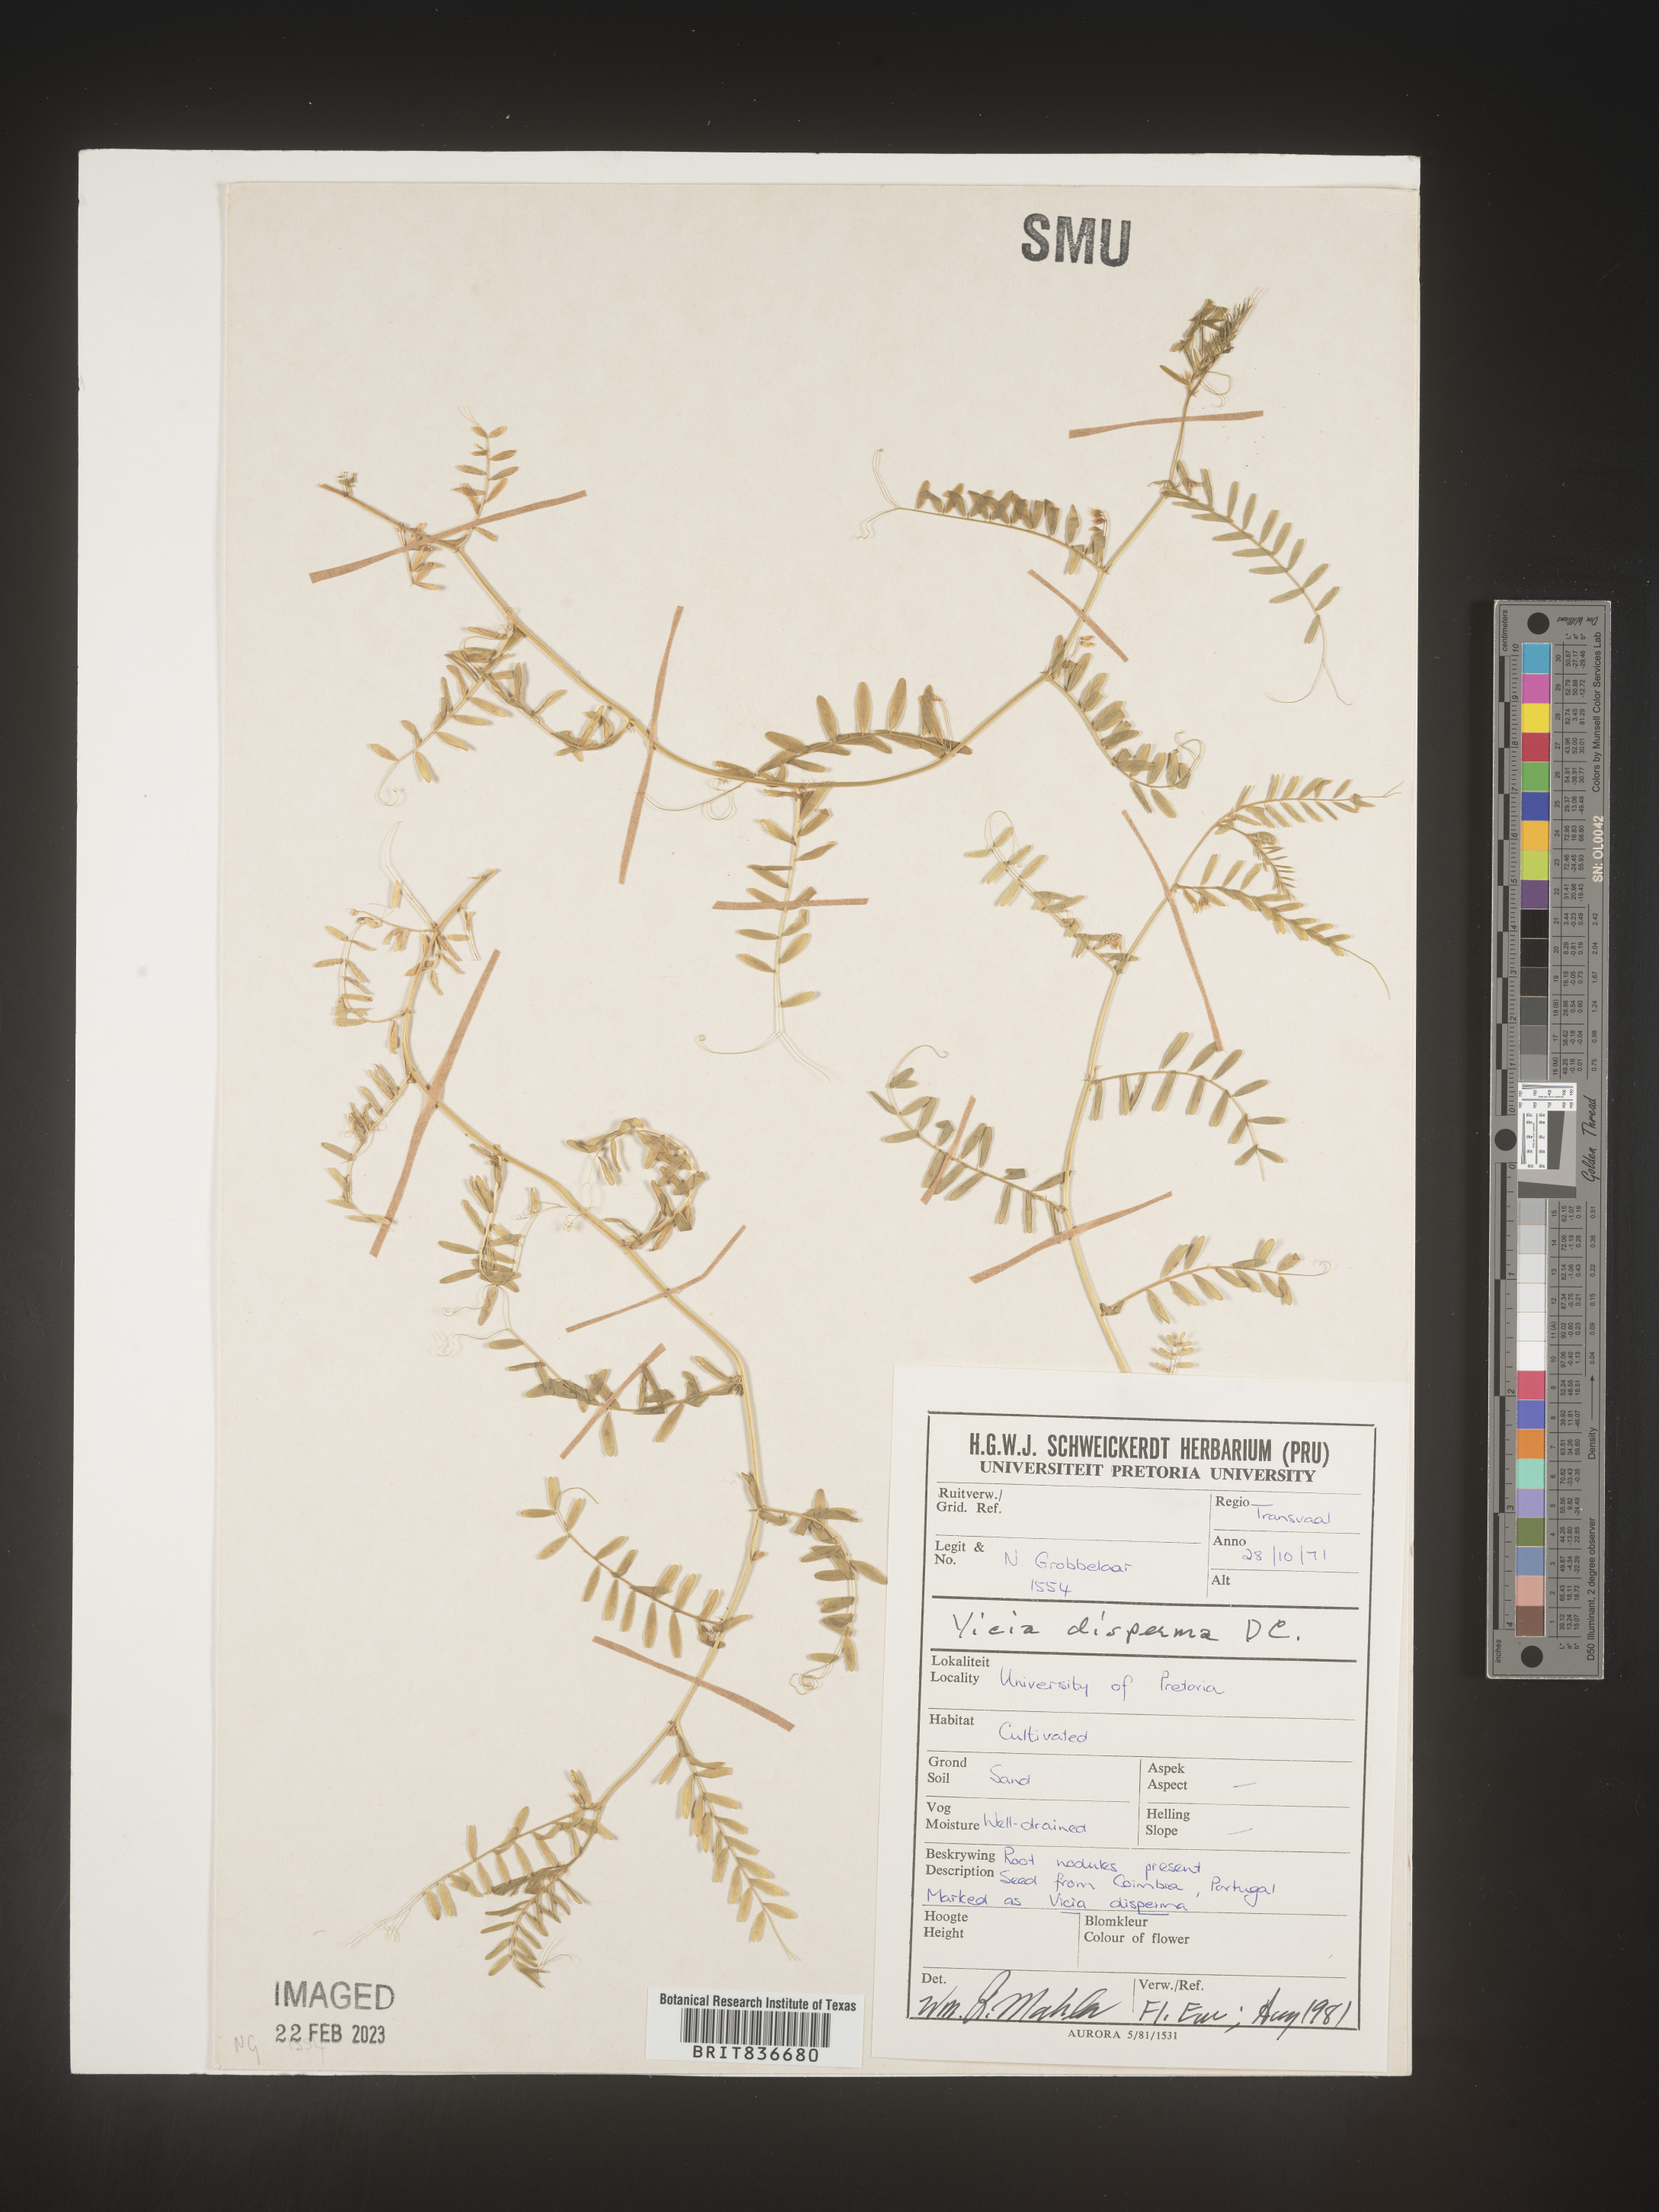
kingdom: Plantae
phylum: Tracheophyta
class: Magnoliopsida
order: Fabales
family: Fabaceae
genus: Vicia
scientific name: Vicia
